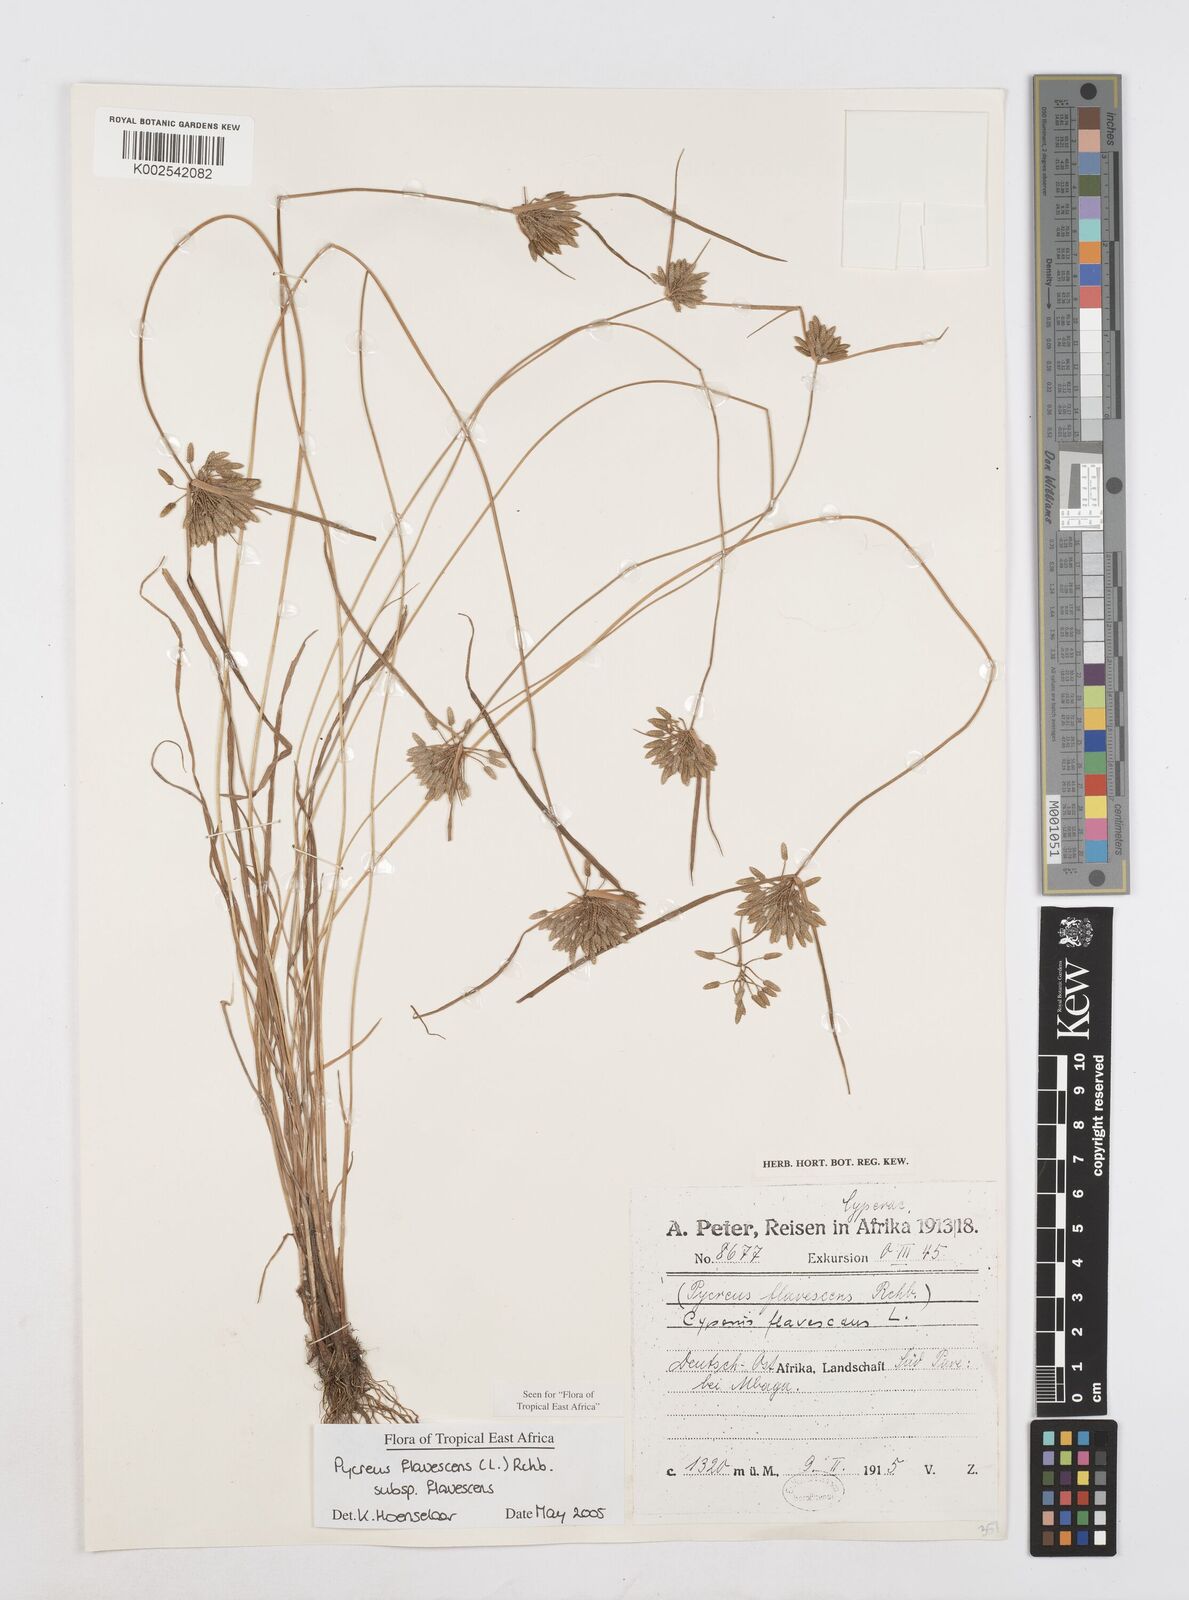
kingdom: Plantae
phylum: Tracheophyta
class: Liliopsida
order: Poales
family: Cyperaceae
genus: Cyperus
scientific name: Cyperus flavescens
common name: Yellow galingale
